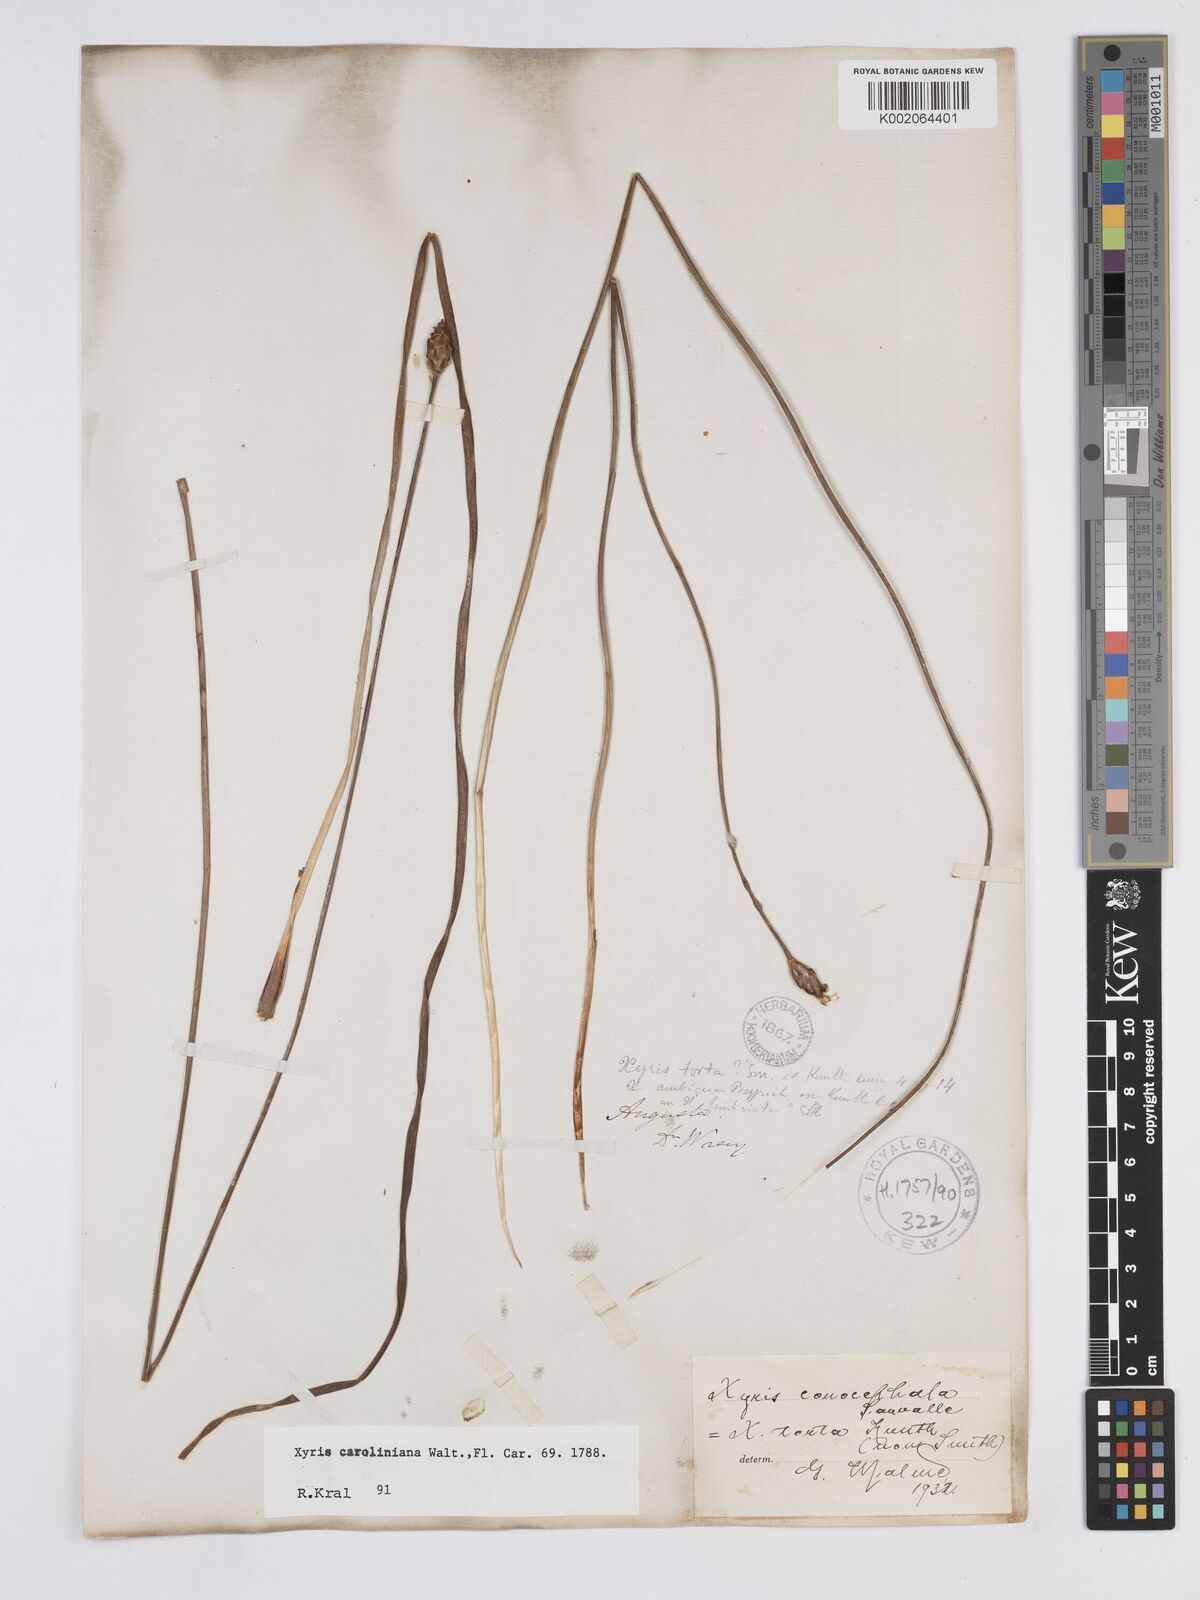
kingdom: Plantae
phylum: Tracheophyta
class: Liliopsida
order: Poales
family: Xyridaceae
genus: Xyris
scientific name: Xyris caroliniana
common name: Carolina yellow-eyed-grass
